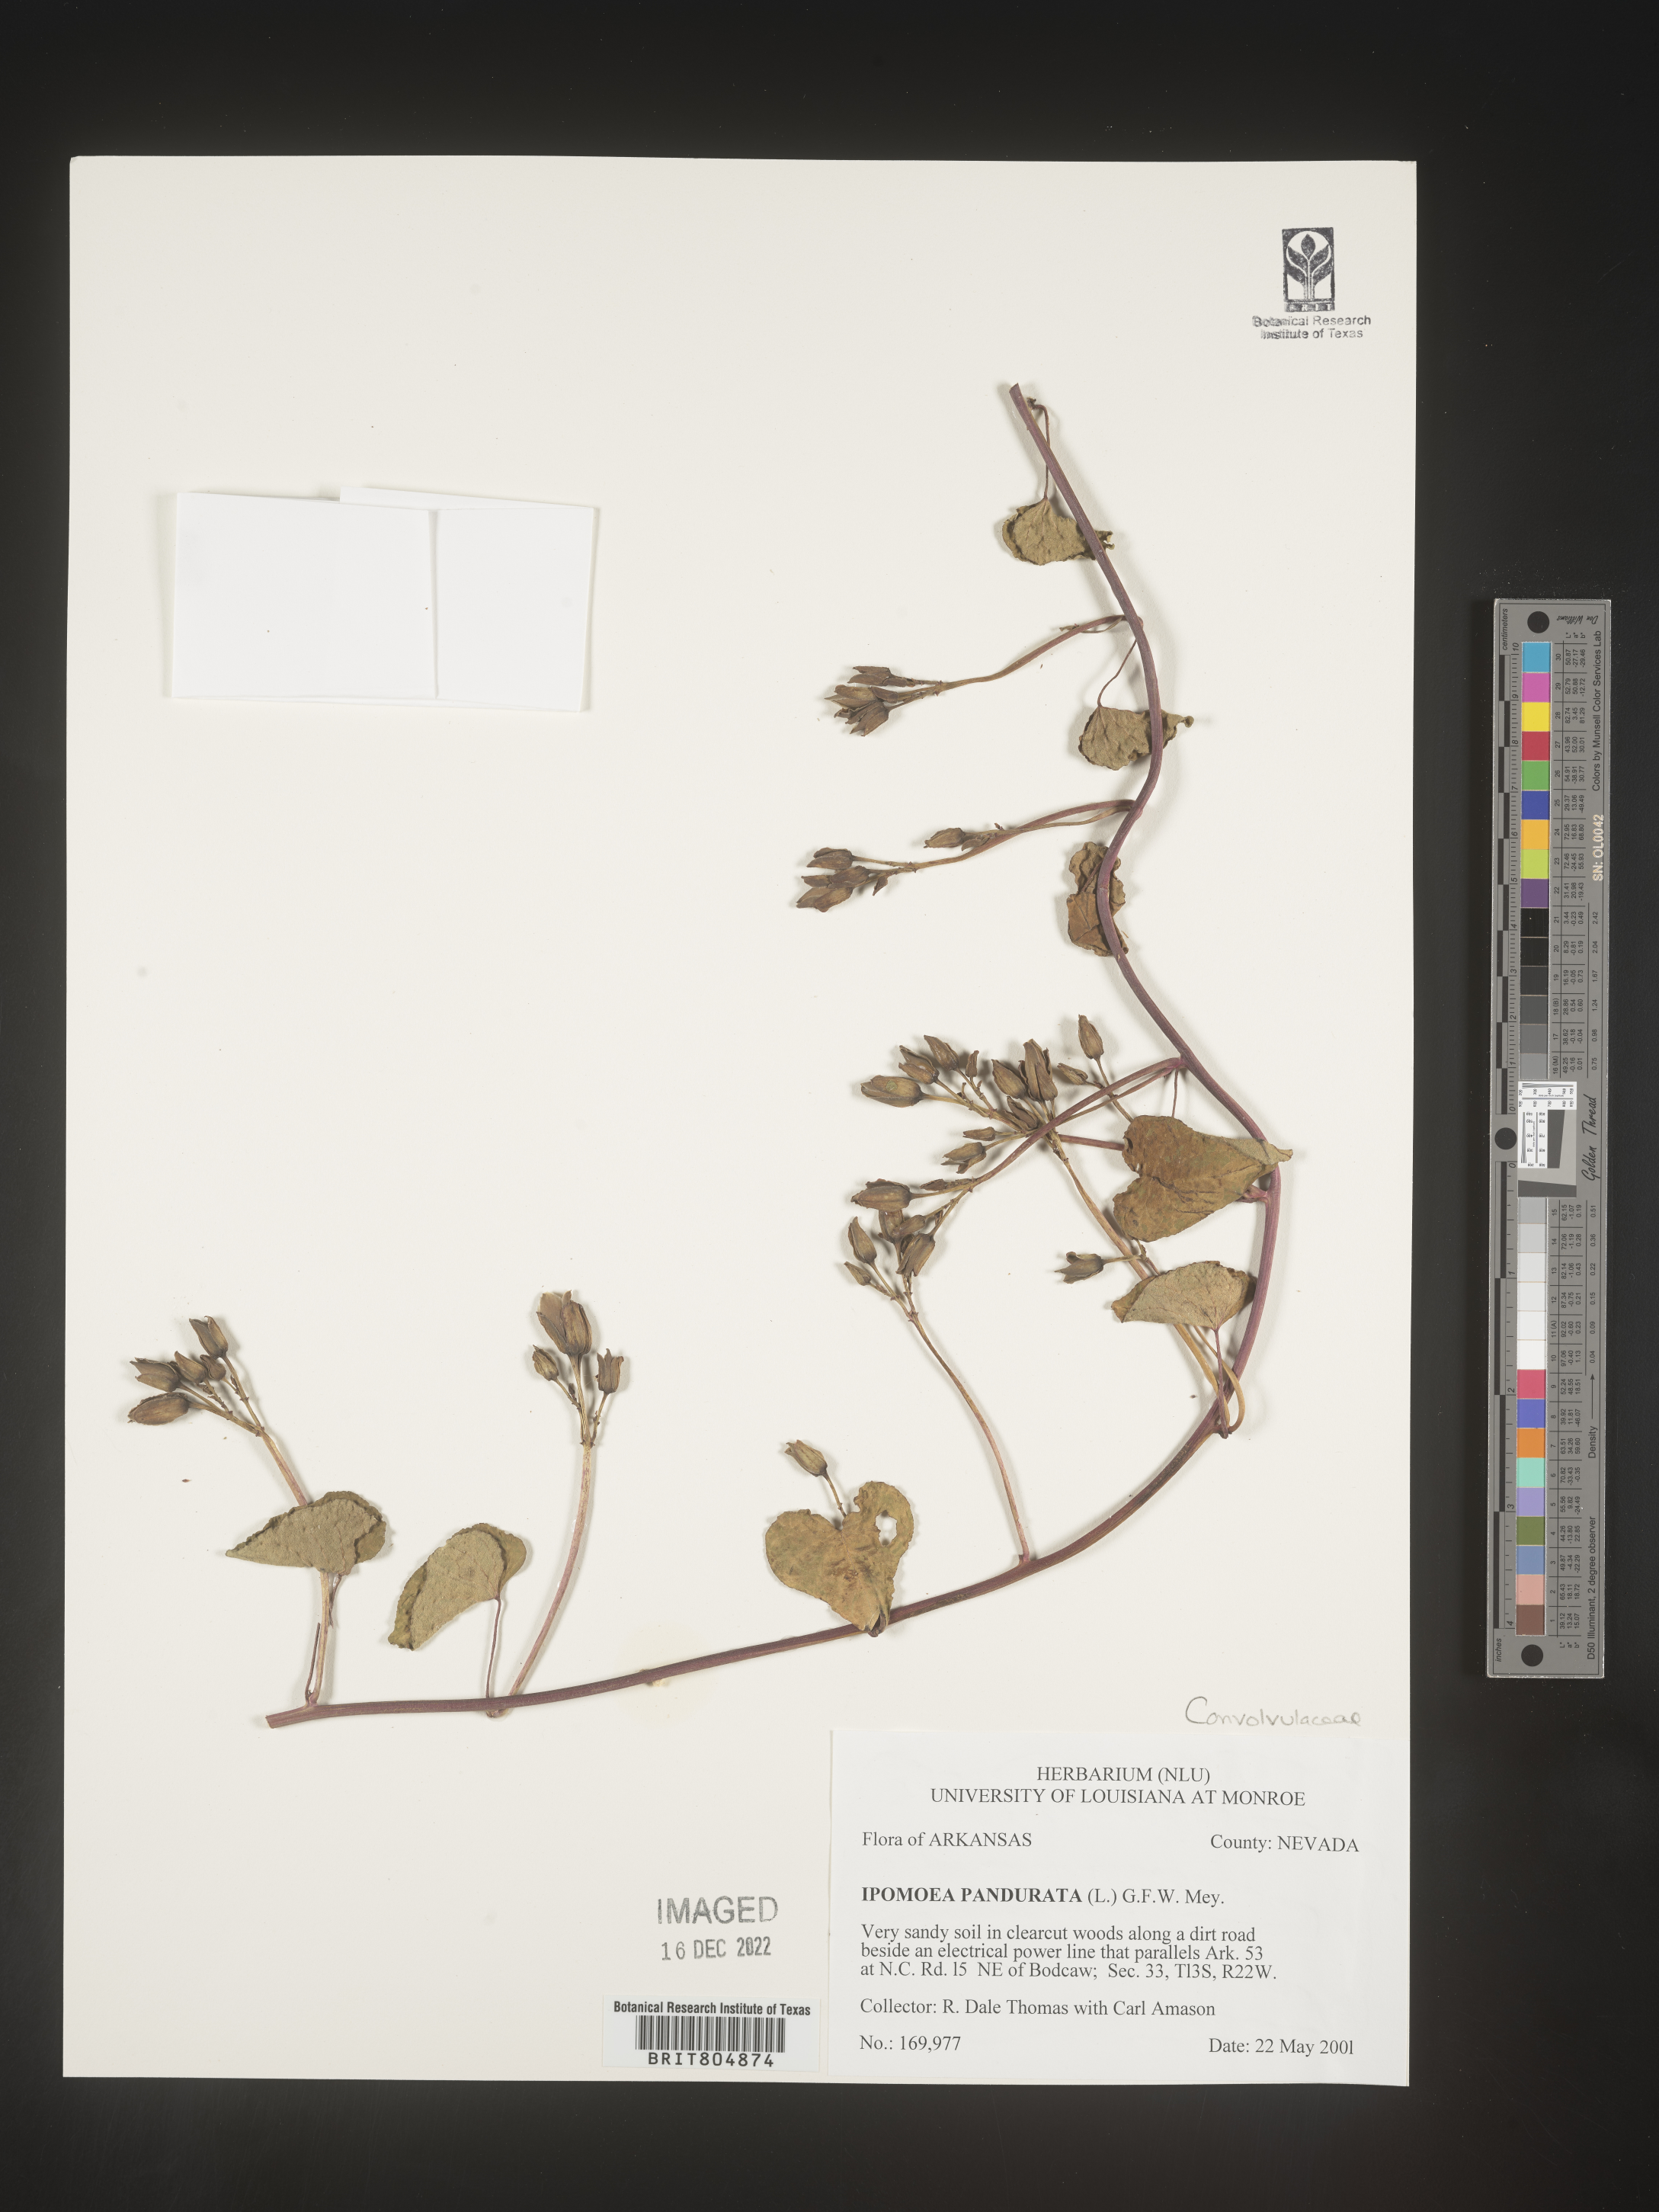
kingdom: Plantae
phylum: Tracheophyta
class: Magnoliopsida
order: Solanales
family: Convolvulaceae
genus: Ipomoea
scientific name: Ipomoea pandurata
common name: Man-of-the-earth
